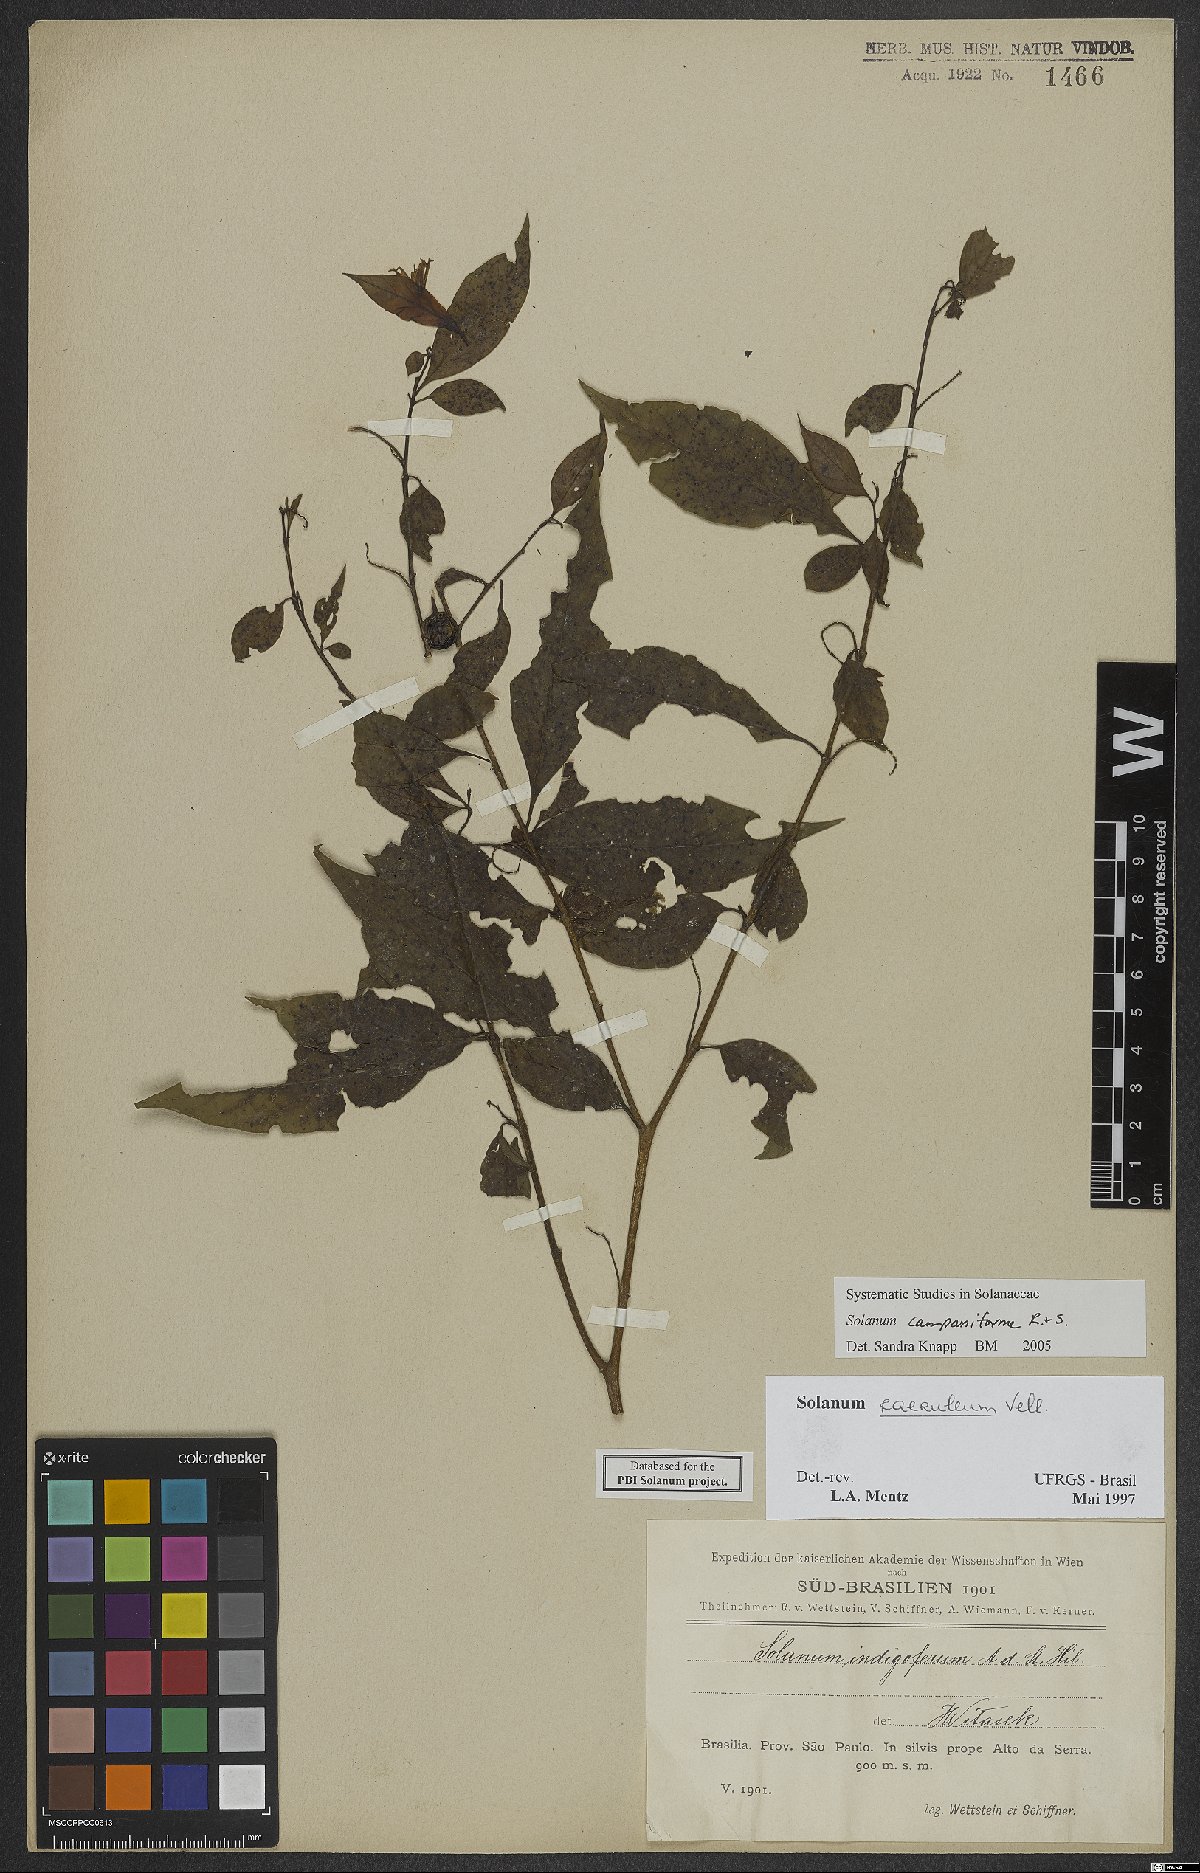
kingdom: Plantae
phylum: Tracheophyta
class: Magnoliopsida
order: Solanales
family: Solanaceae
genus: Solanum
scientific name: Solanum campaniforme
